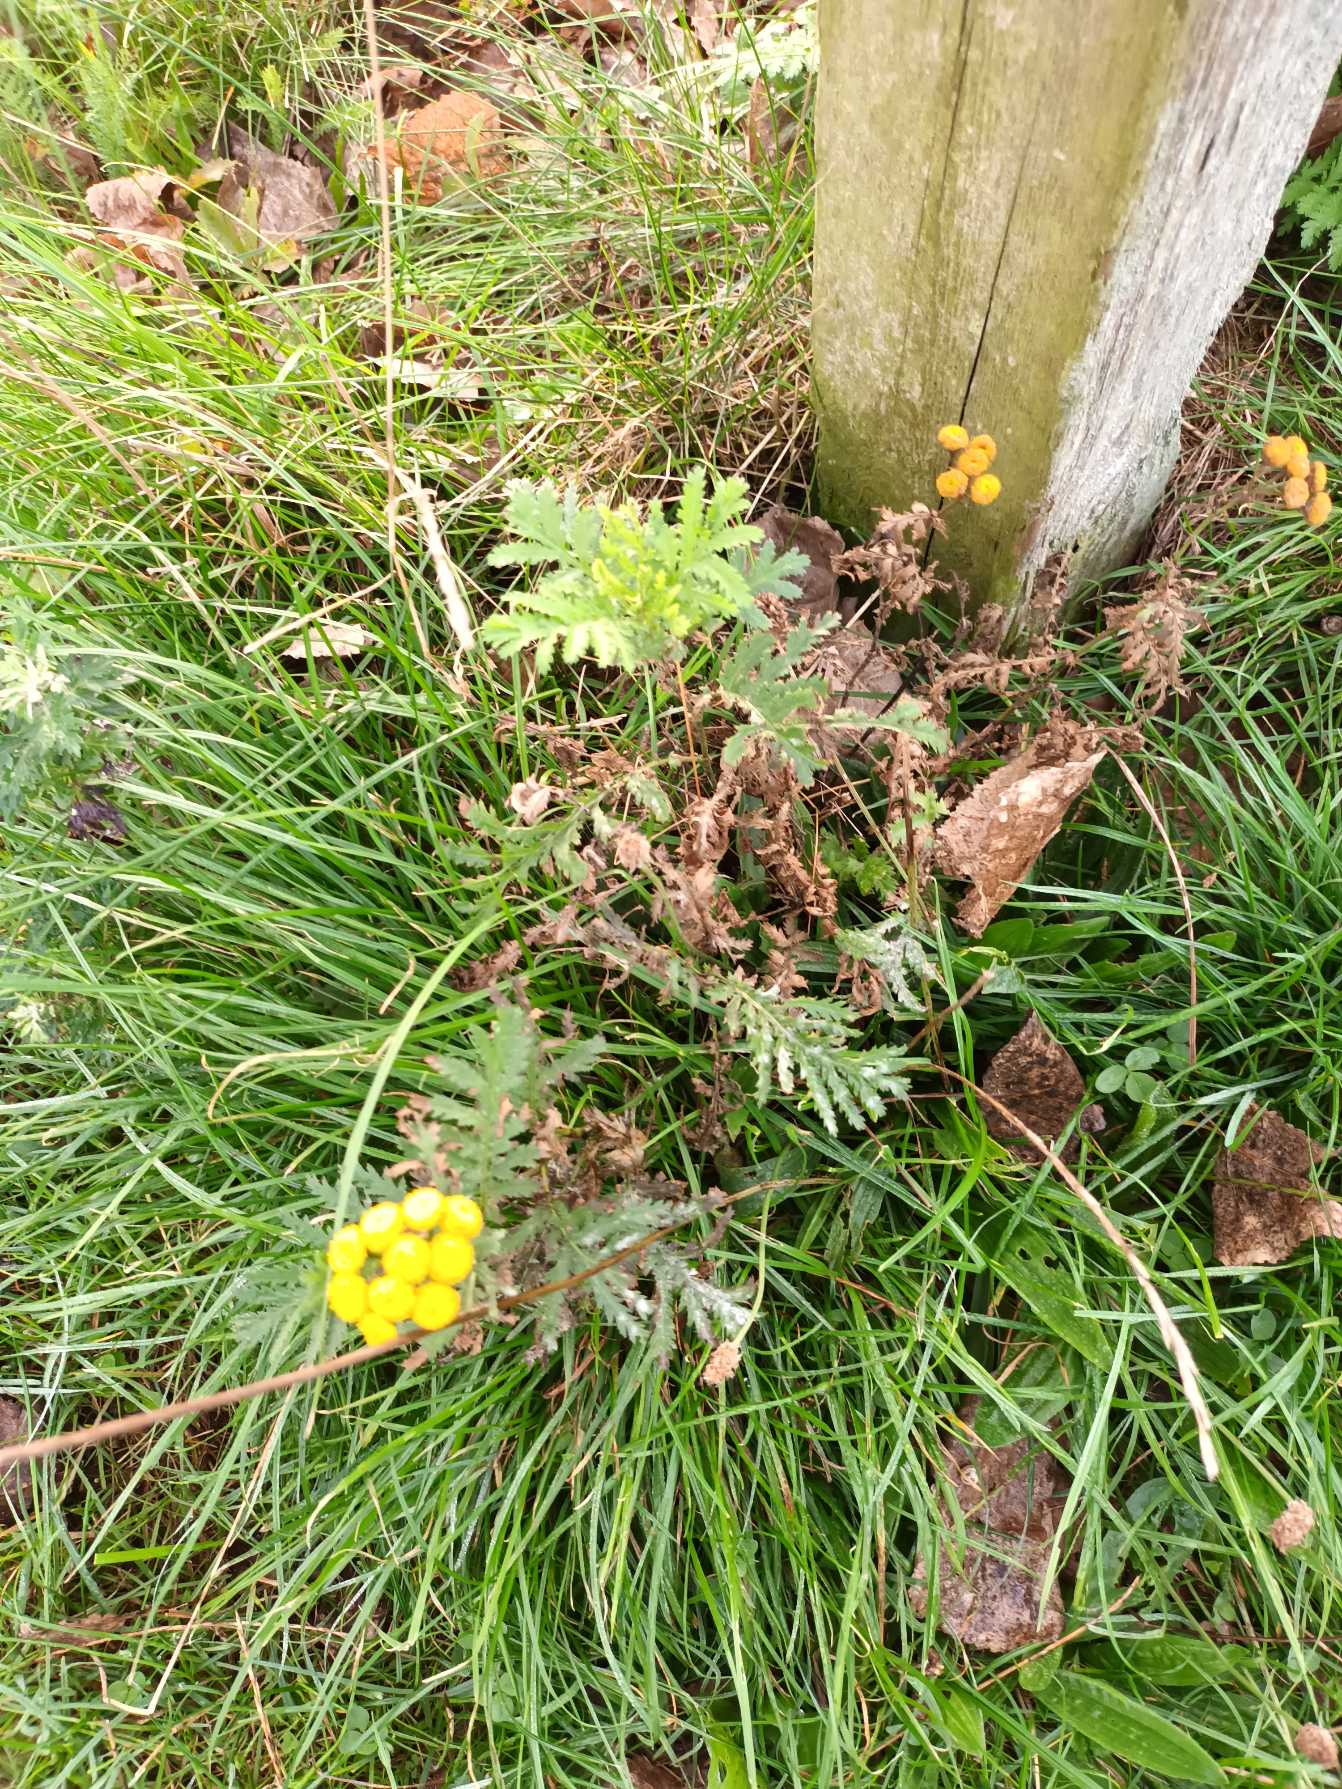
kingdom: Plantae
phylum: Tracheophyta
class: Magnoliopsida
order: Asterales
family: Asteraceae
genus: Tanacetum
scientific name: Tanacetum vulgare
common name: Rejnfan
